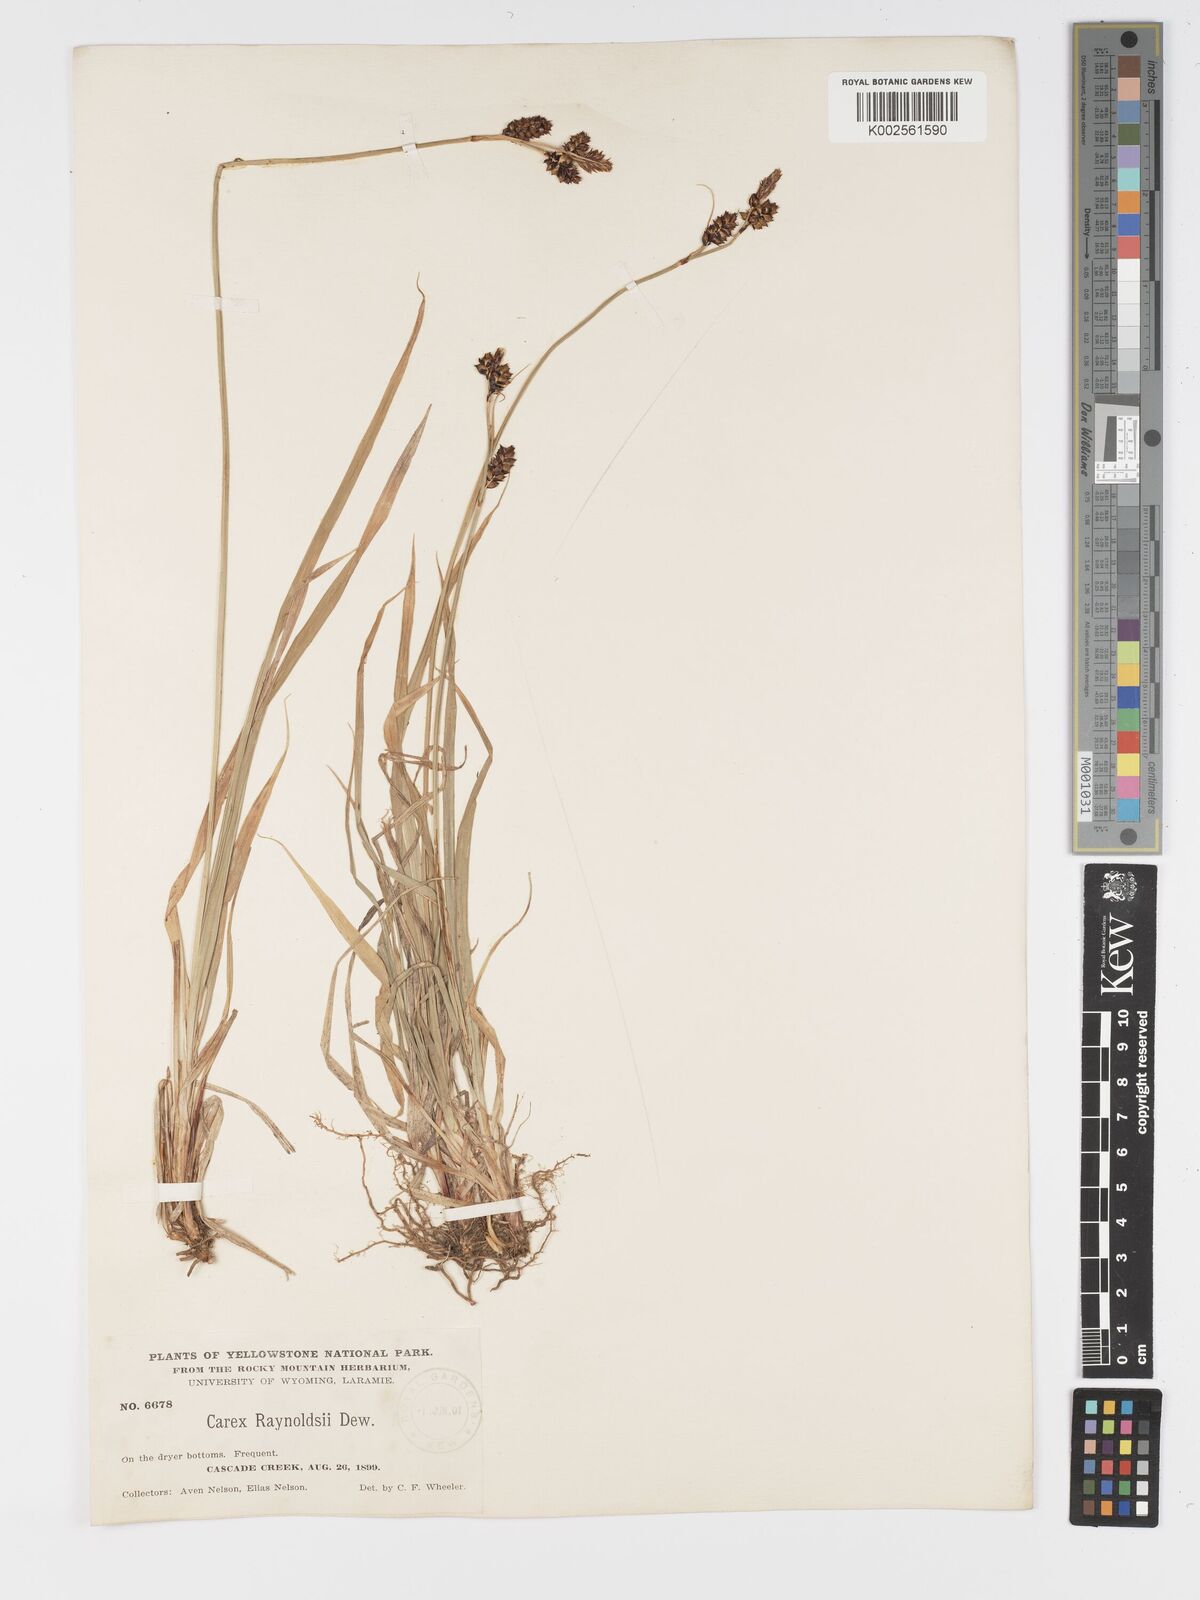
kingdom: Plantae
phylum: Tracheophyta
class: Liliopsida
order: Poales
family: Cyperaceae
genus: Carex
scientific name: Carex raynoldsii
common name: Raynolds' sedge
